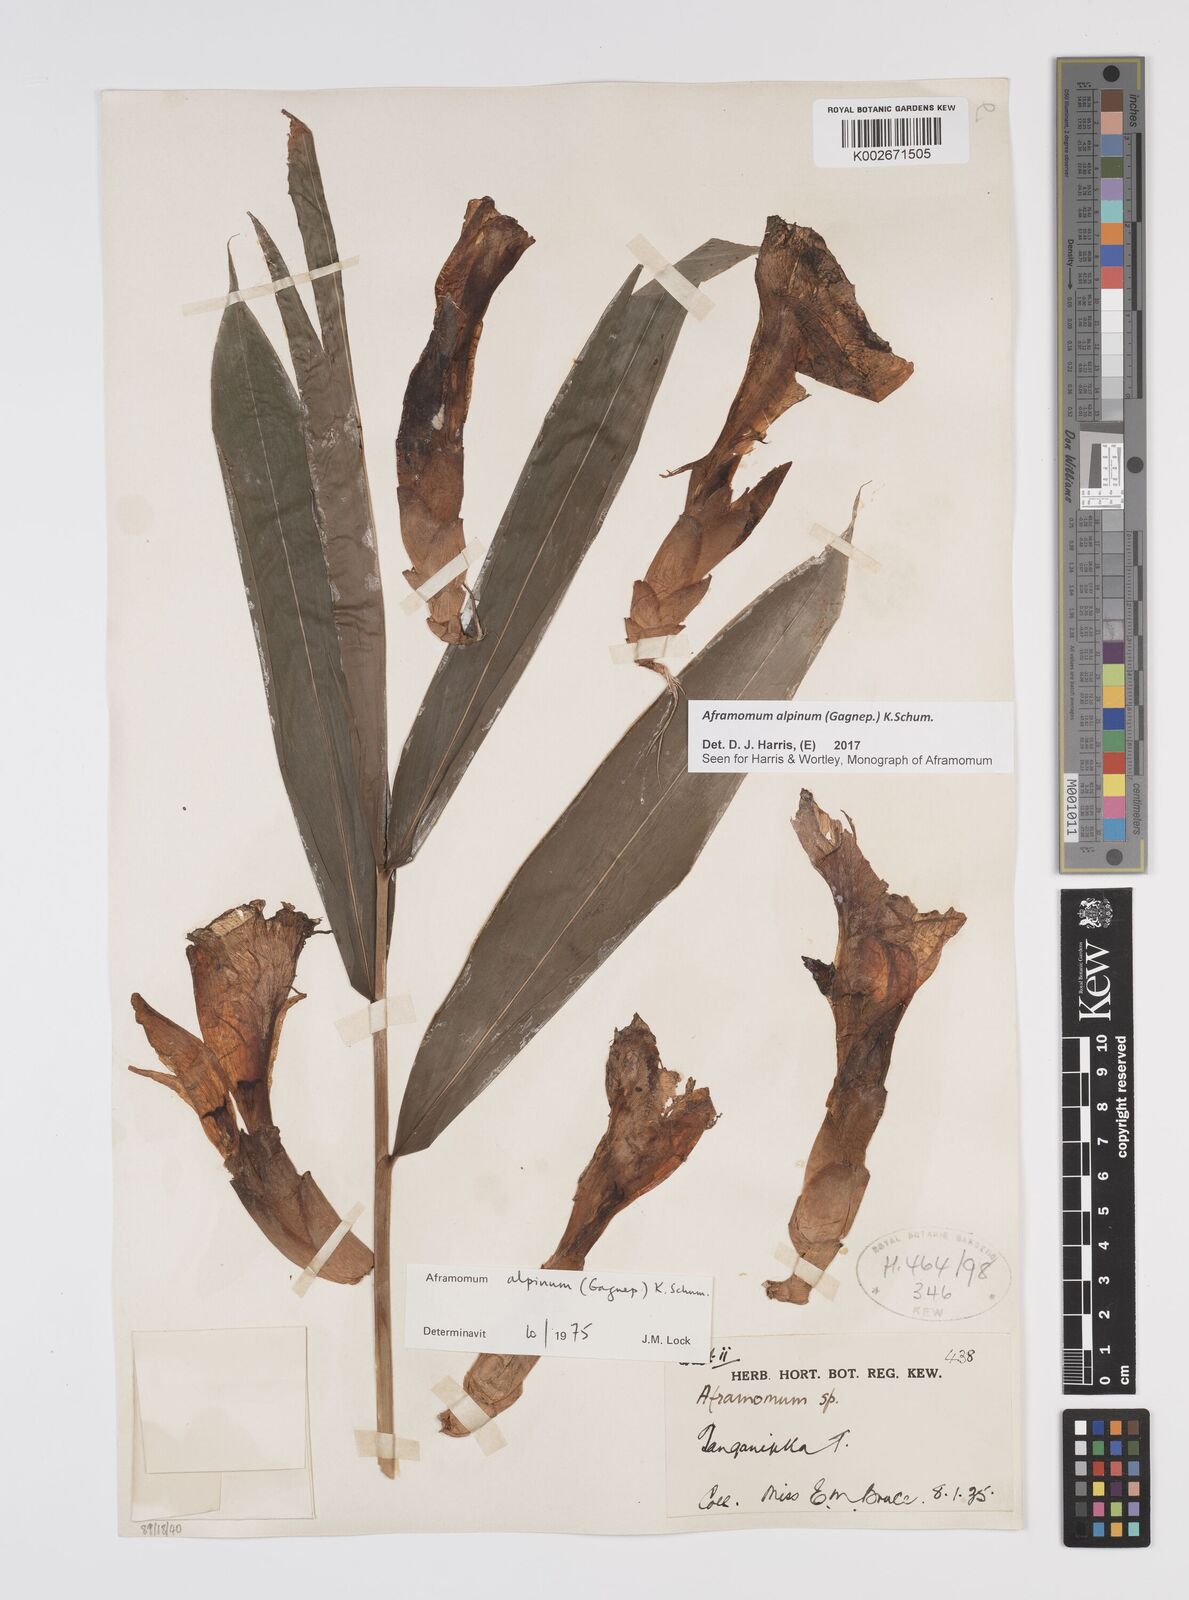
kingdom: Plantae
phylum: Tracheophyta
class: Liliopsida
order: Zingiberales
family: Zingiberaceae
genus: Aframomum
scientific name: Aframomum alpinum
